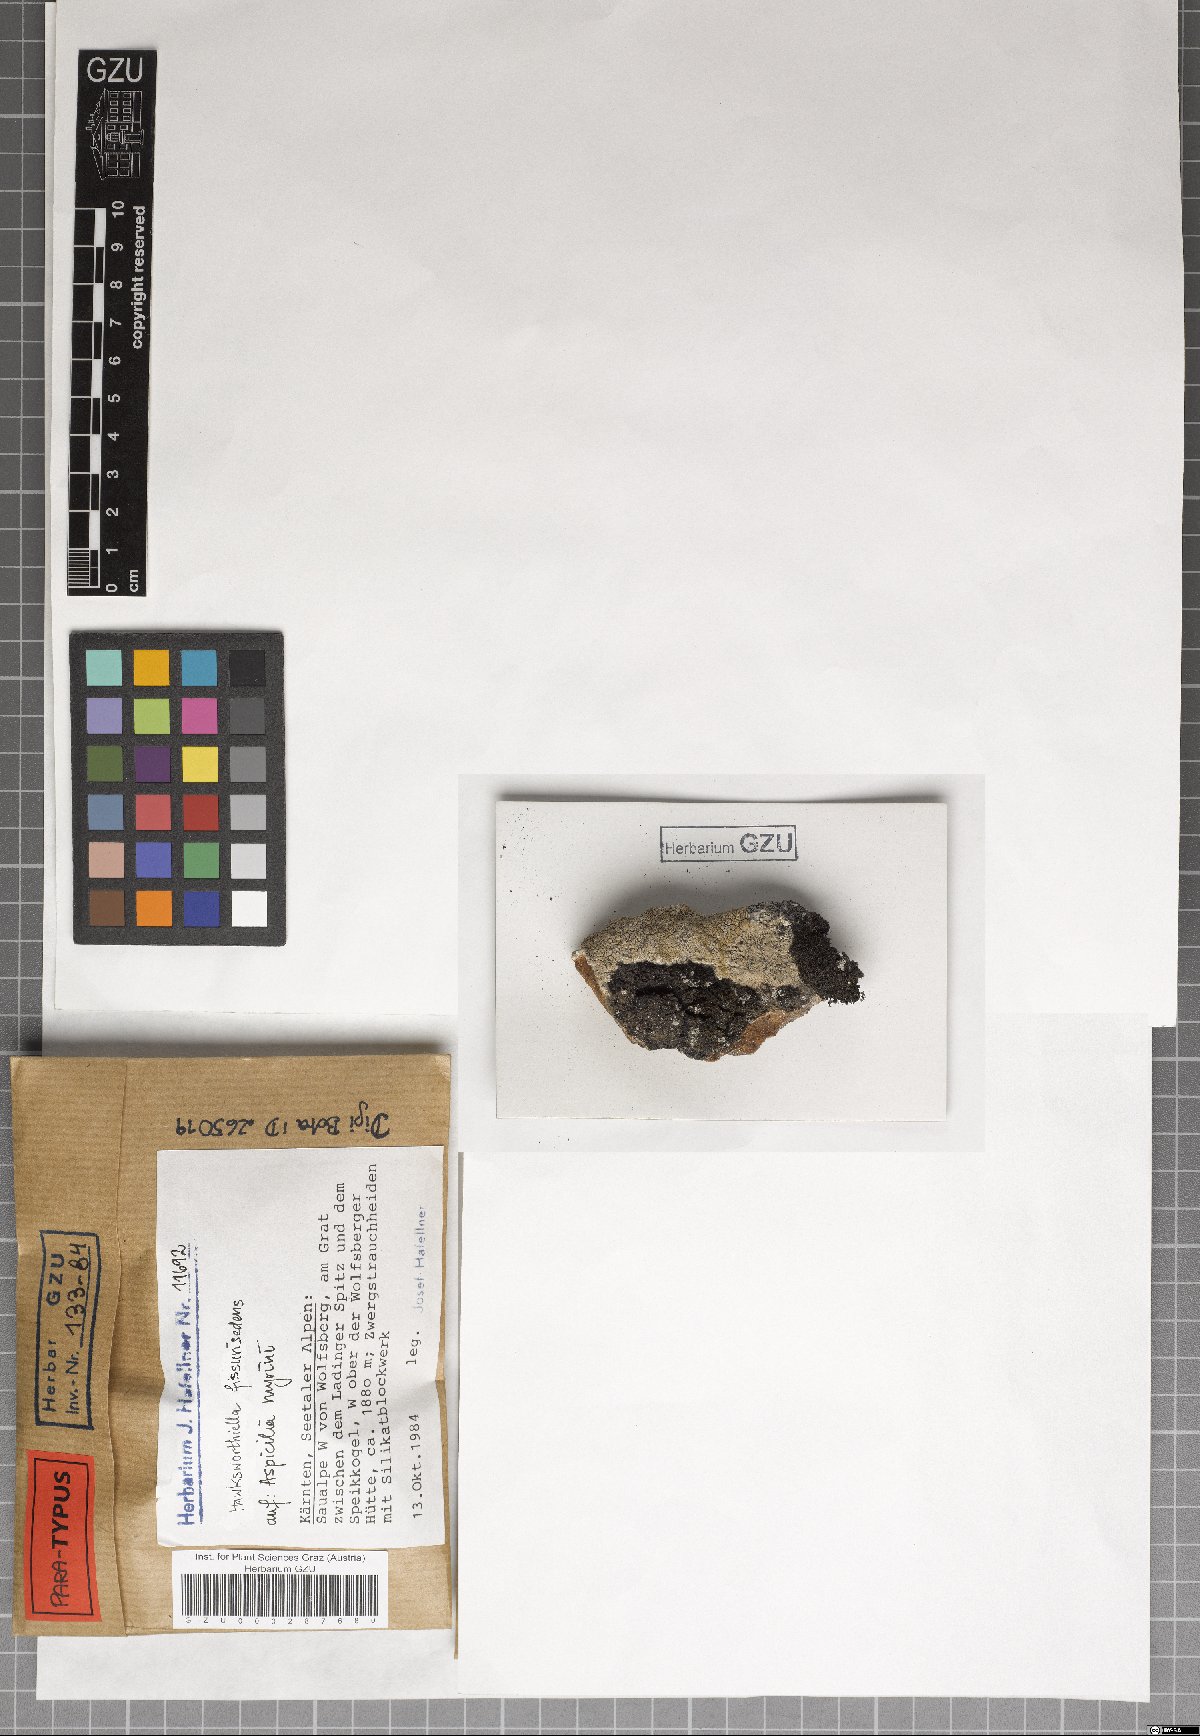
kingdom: Fungi
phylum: Ascomycota
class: Eurotiomycetes
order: Verrucariales
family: Adelococcaceae
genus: Sagediopsis
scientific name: Sagediopsis fissurisedens
